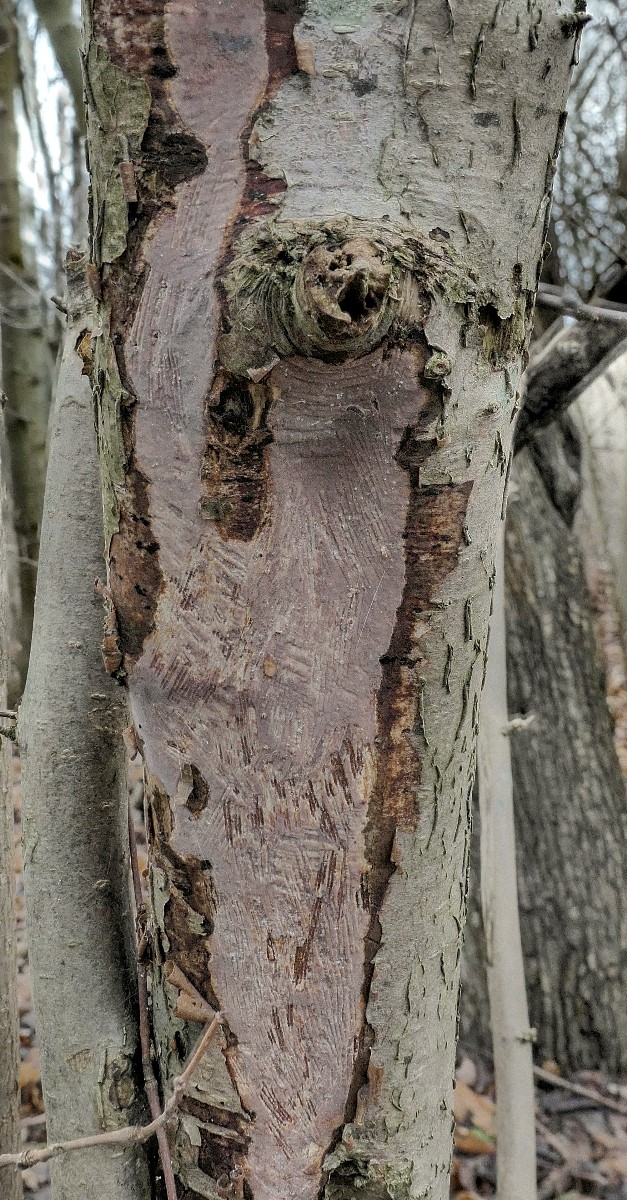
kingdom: Fungi
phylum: Basidiomycota
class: Agaricomycetes
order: Corticiales
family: Vuilleminiaceae
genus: Vuilleminia
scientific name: Vuilleminia coryli
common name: hassel-barksprænger
